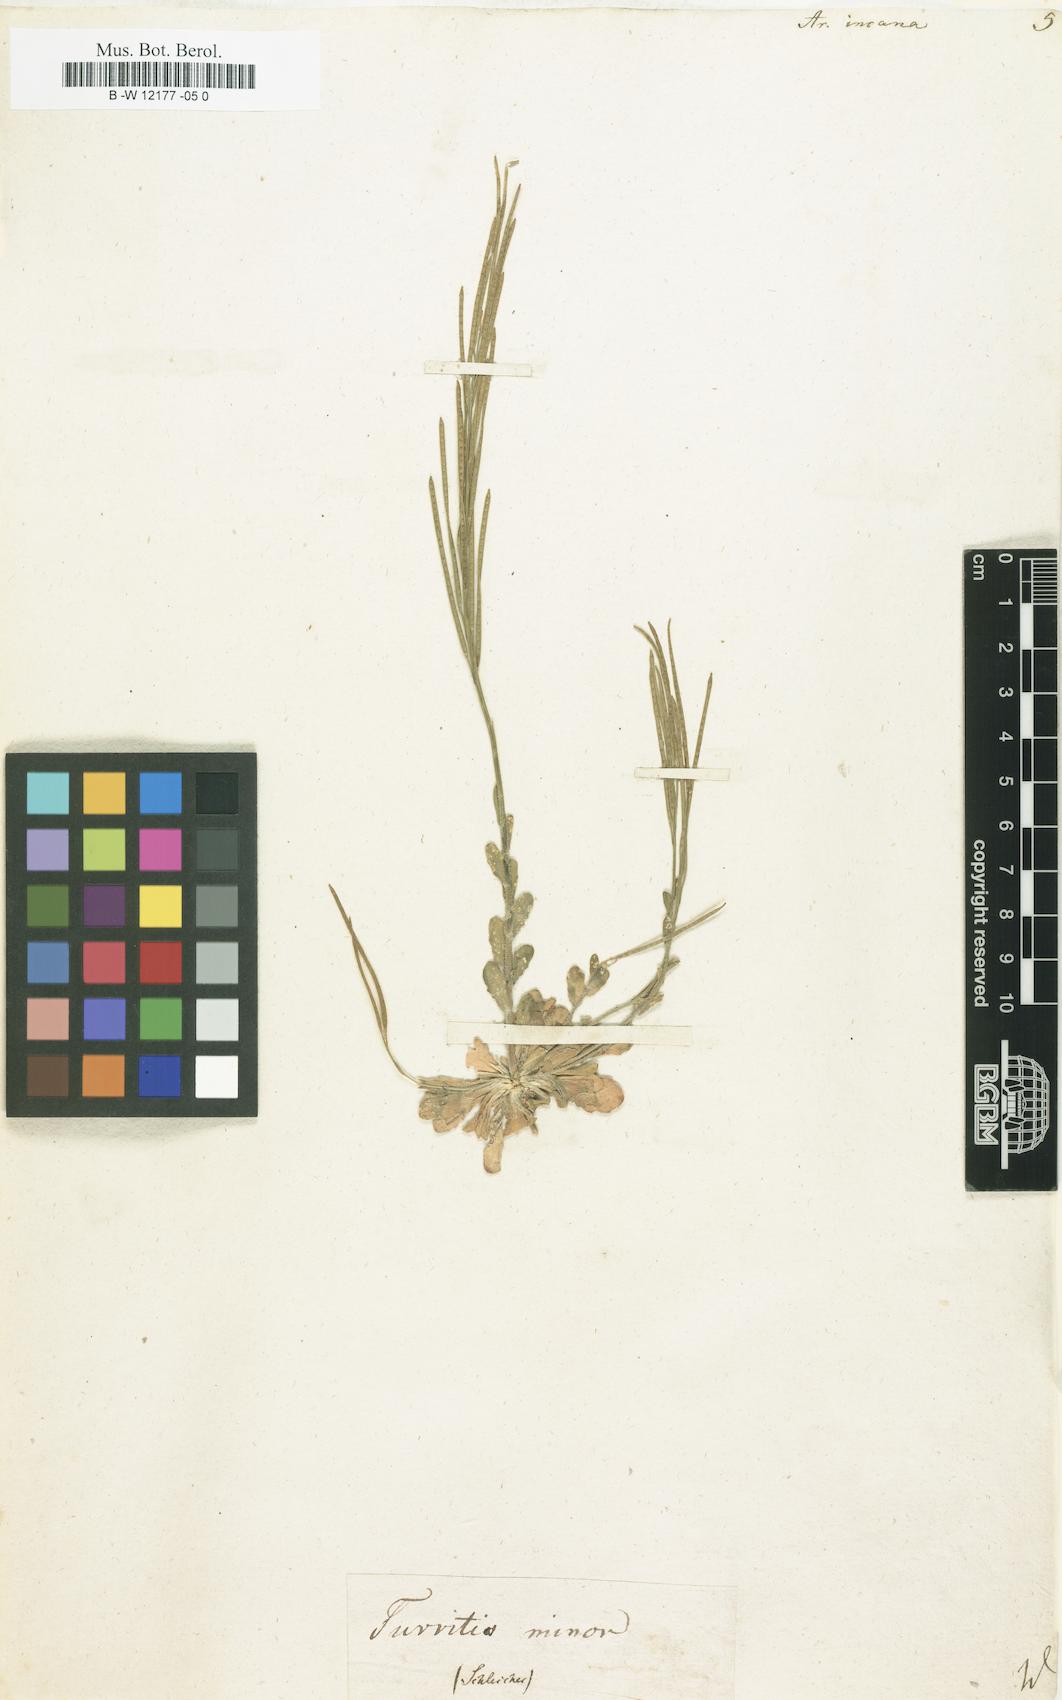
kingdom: Plantae
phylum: Tracheophyta
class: Magnoliopsida
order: Brassicales
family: Brassicaceae
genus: Arabis
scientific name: Arabis incana
